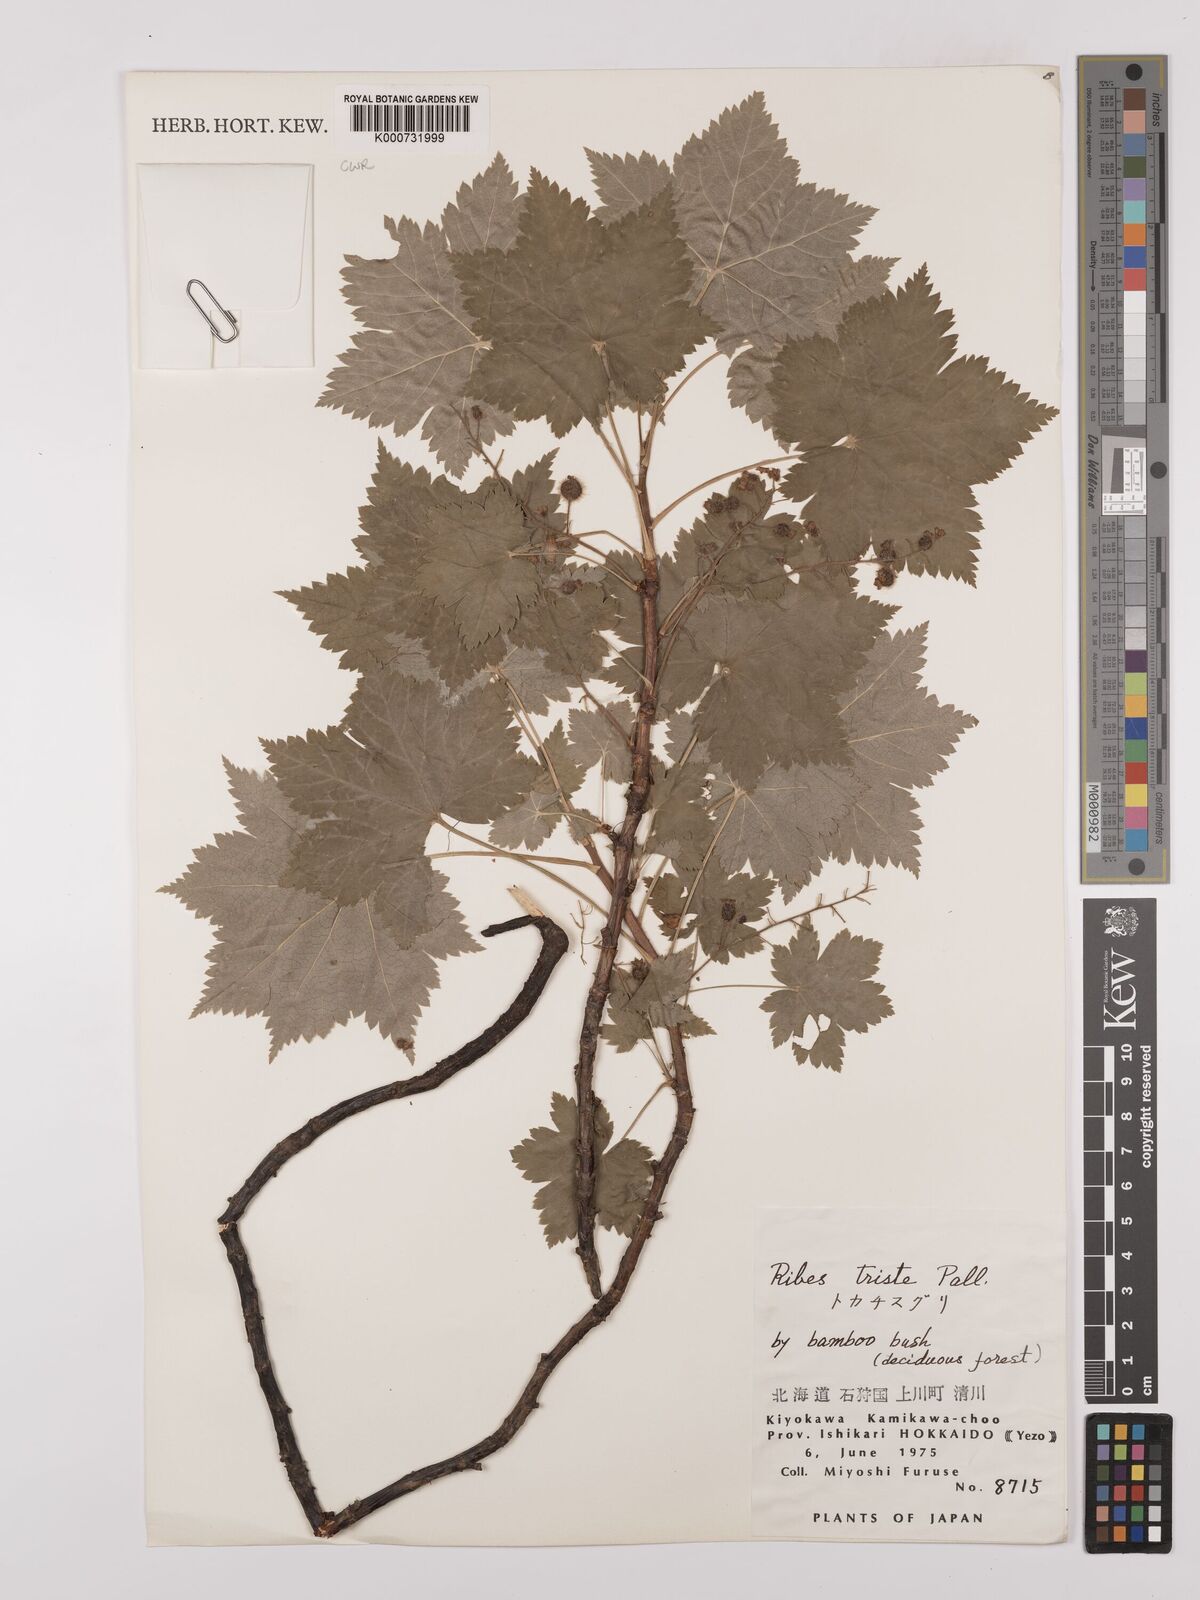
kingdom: Plantae
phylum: Tracheophyta
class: Magnoliopsida
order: Saxifragales
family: Grossulariaceae
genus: Ribes
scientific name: Ribes triste
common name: Swamp red currant
